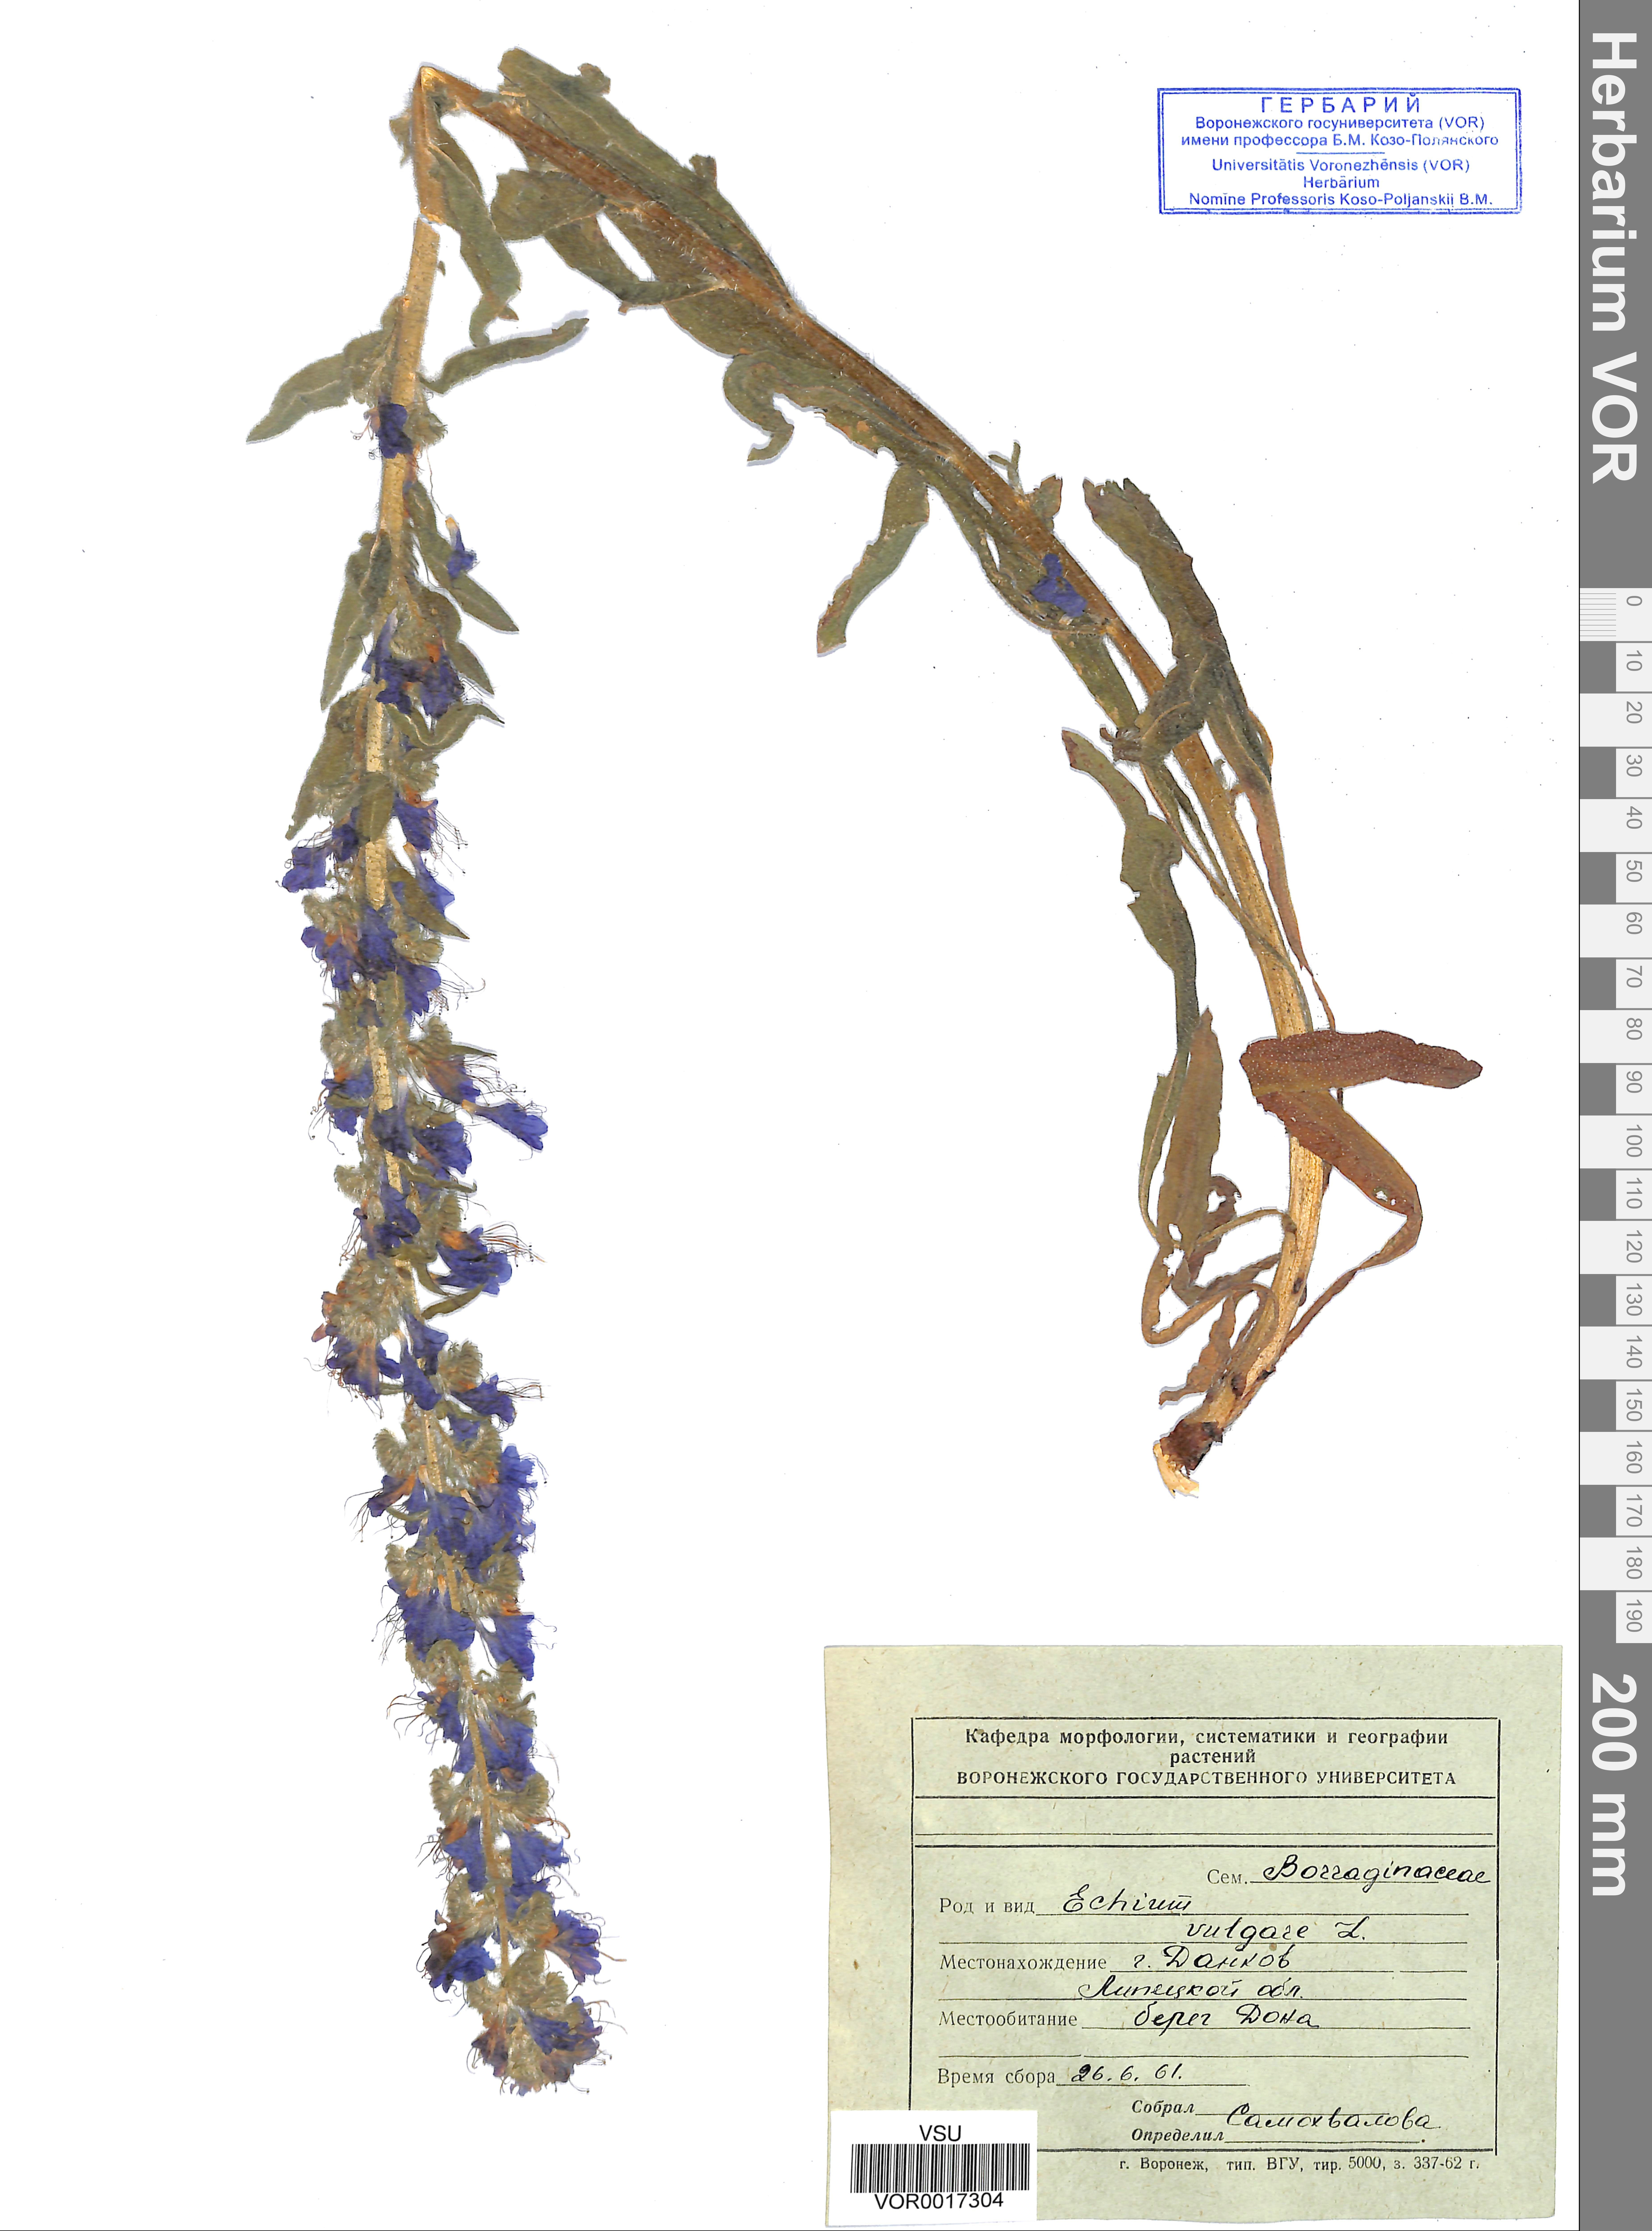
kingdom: Plantae
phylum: Tracheophyta
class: Magnoliopsida
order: Boraginales
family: Boraginaceae
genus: Echium
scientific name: Echium vulgare
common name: Common viper's bugloss
